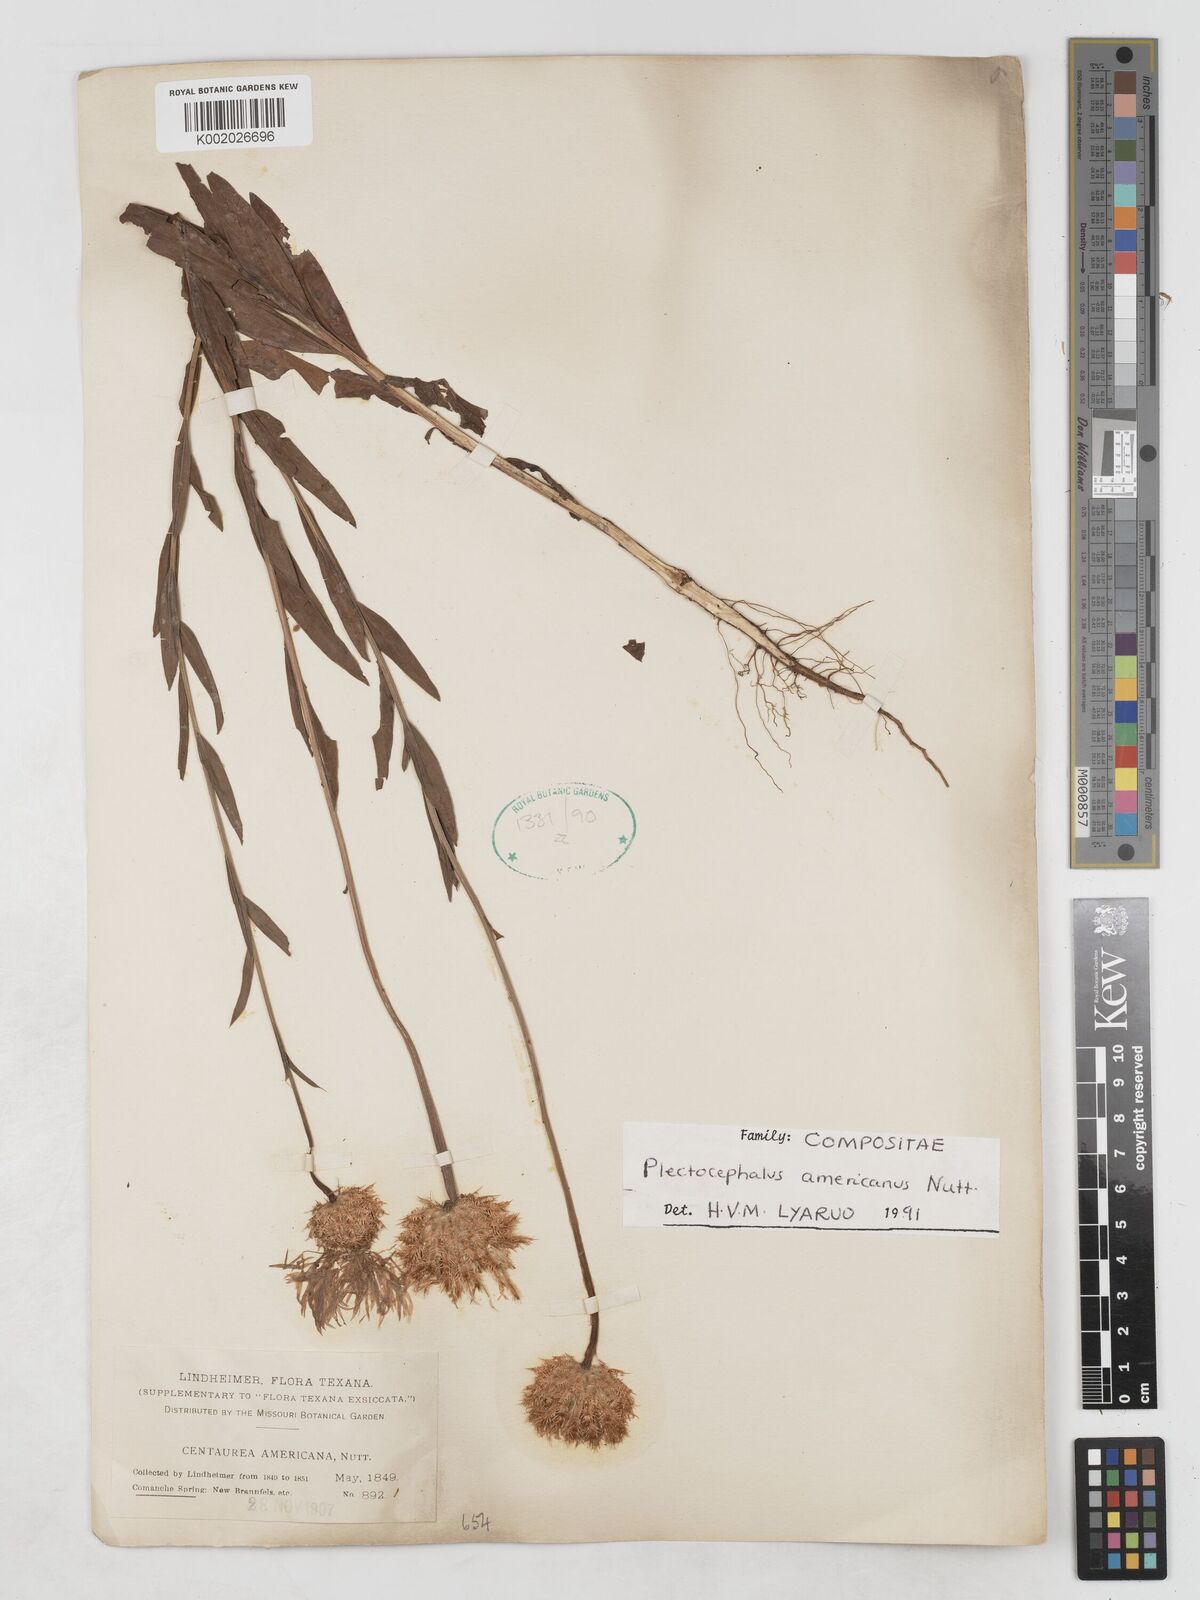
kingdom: Plantae
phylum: Tracheophyta
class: Magnoliopsida
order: Asterales
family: Asteraceae
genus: Plectocephalus
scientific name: Plectocephalus americanus
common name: American basket-flower
